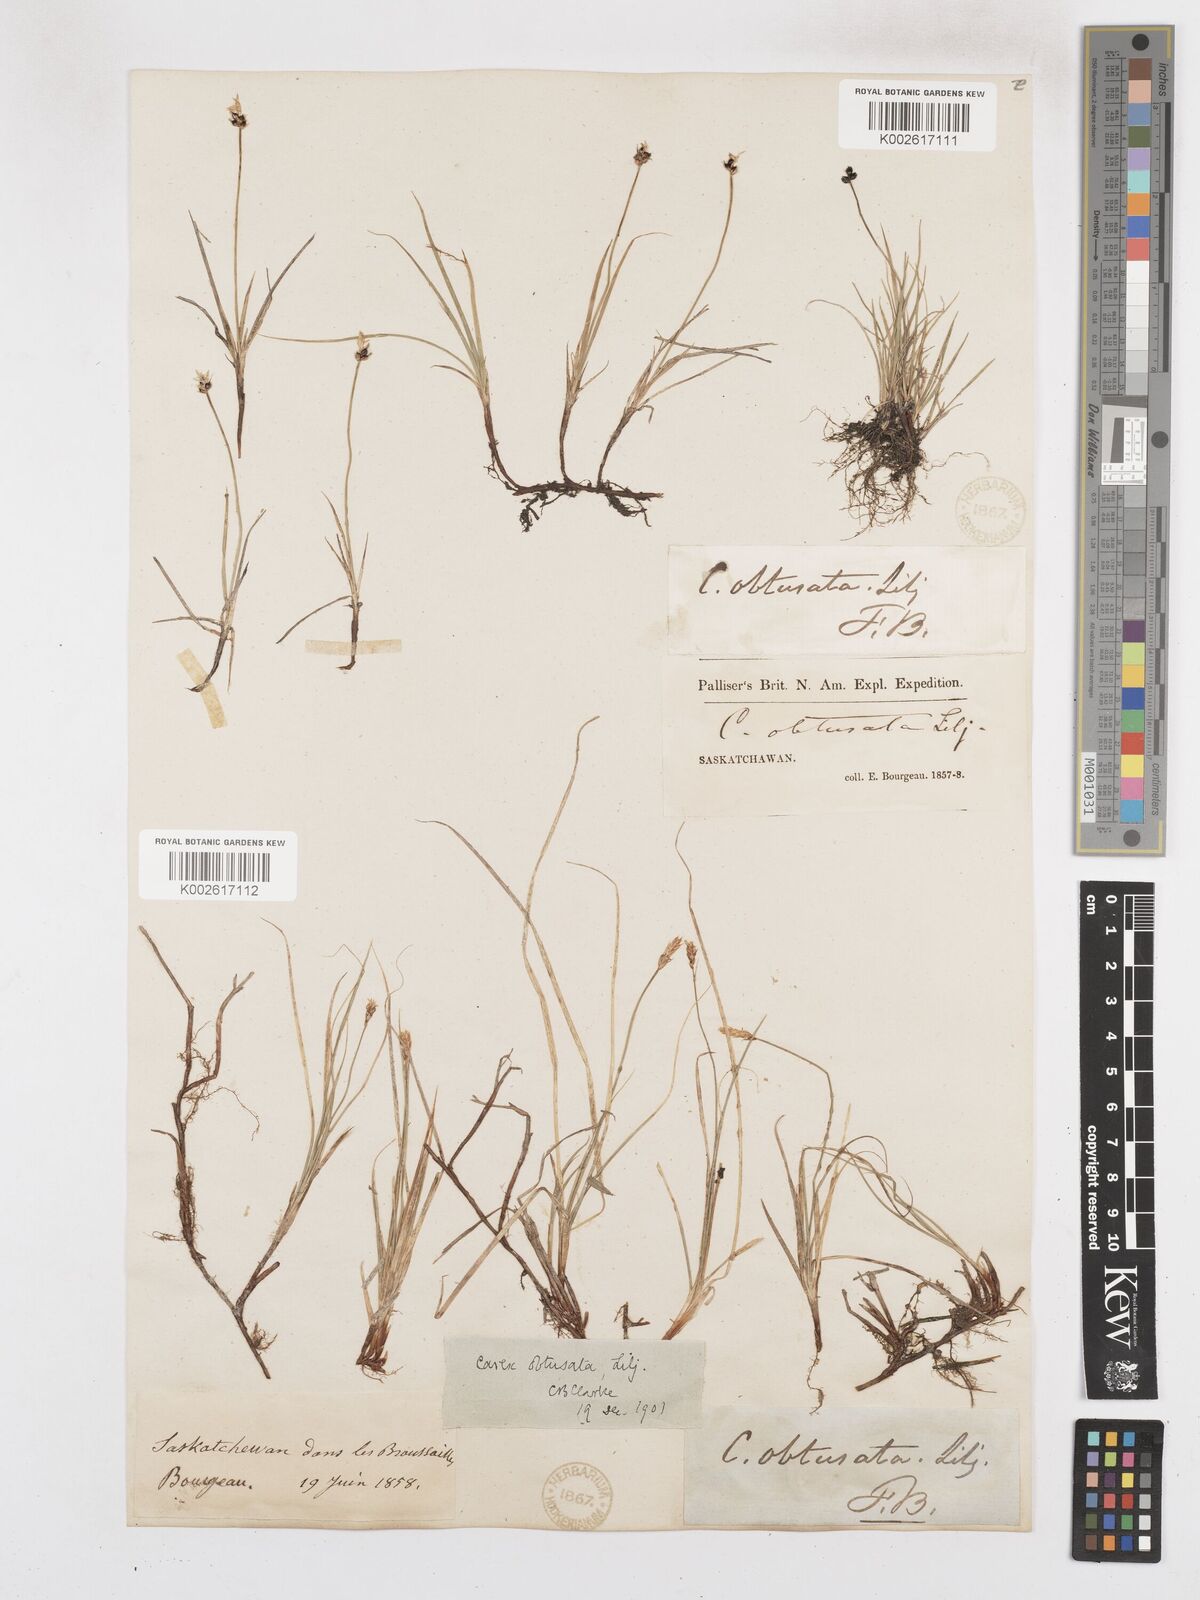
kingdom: Plantae
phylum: Tracheophyta
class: Liliopsida
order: Poales
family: Cyperaceae
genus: Carex
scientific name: Carex obtusata
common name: Blunt sedge
